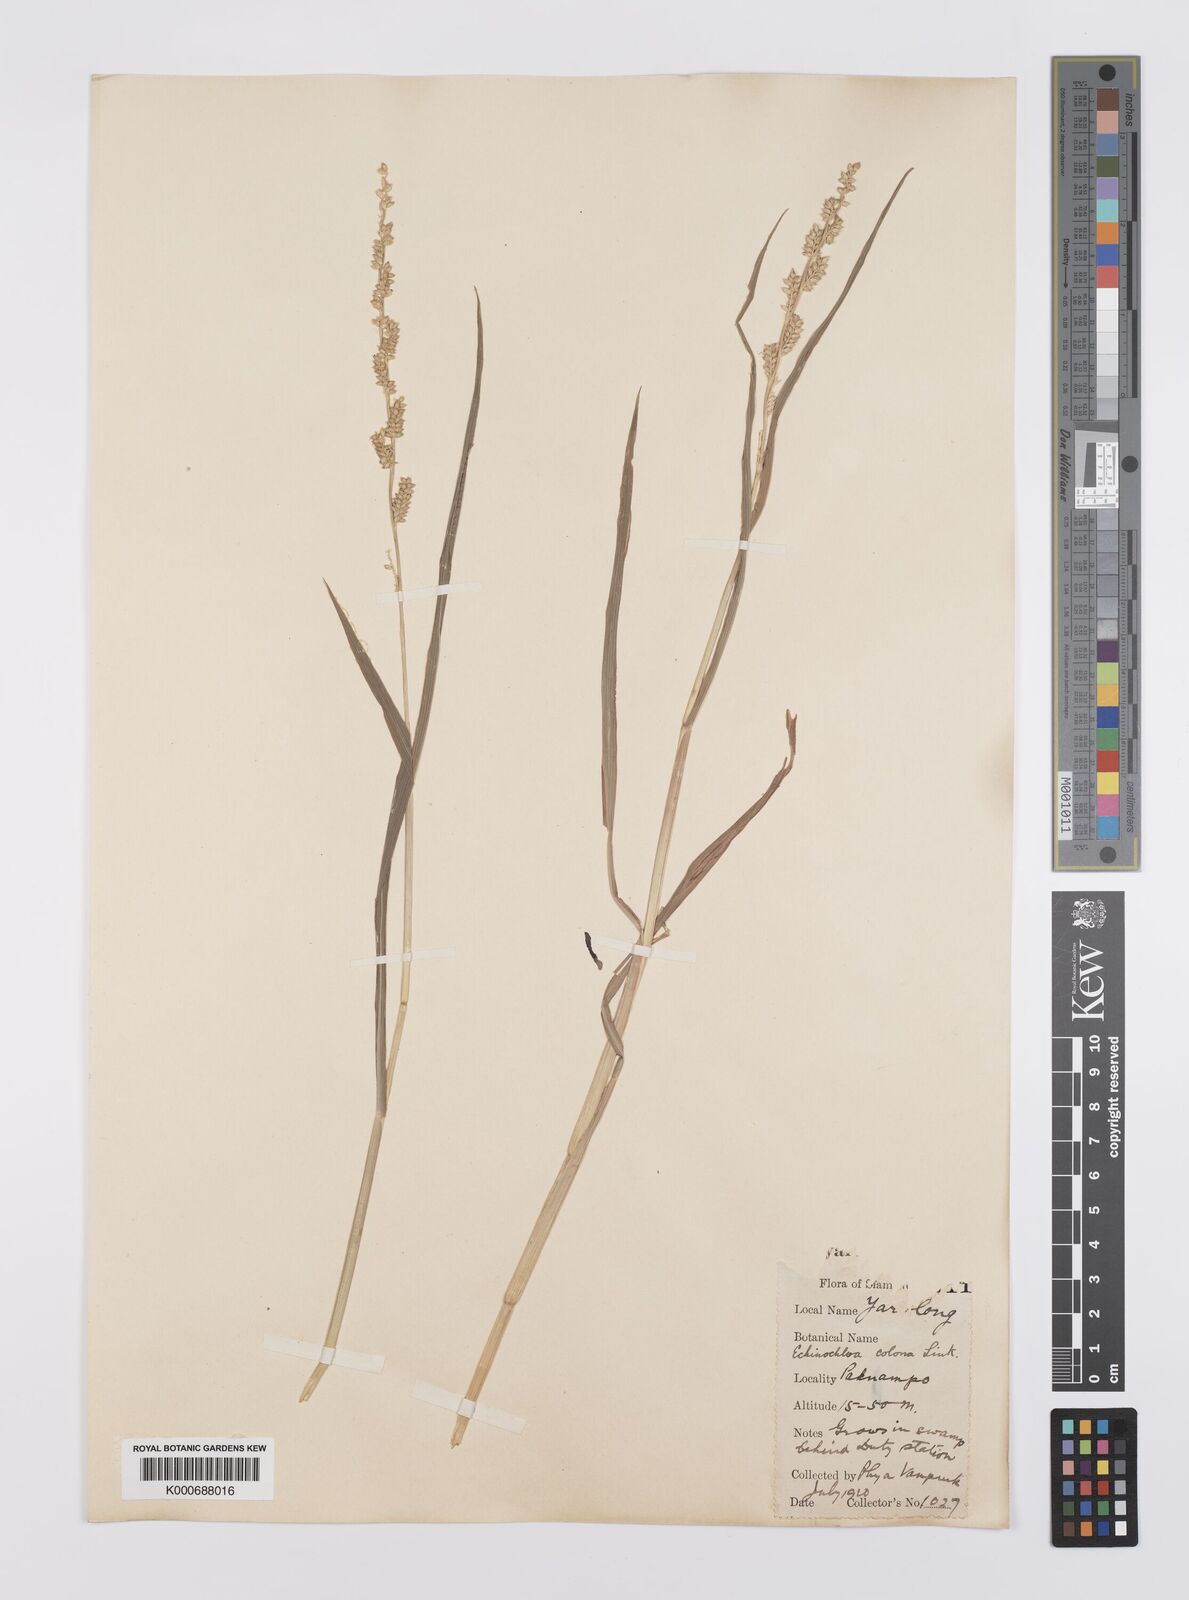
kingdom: Plantae
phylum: Tracheophyta
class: Liliopsida
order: Poales
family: Poaceae
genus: Echinochloa
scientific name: Echinochloa colonum
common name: Jungle rice
